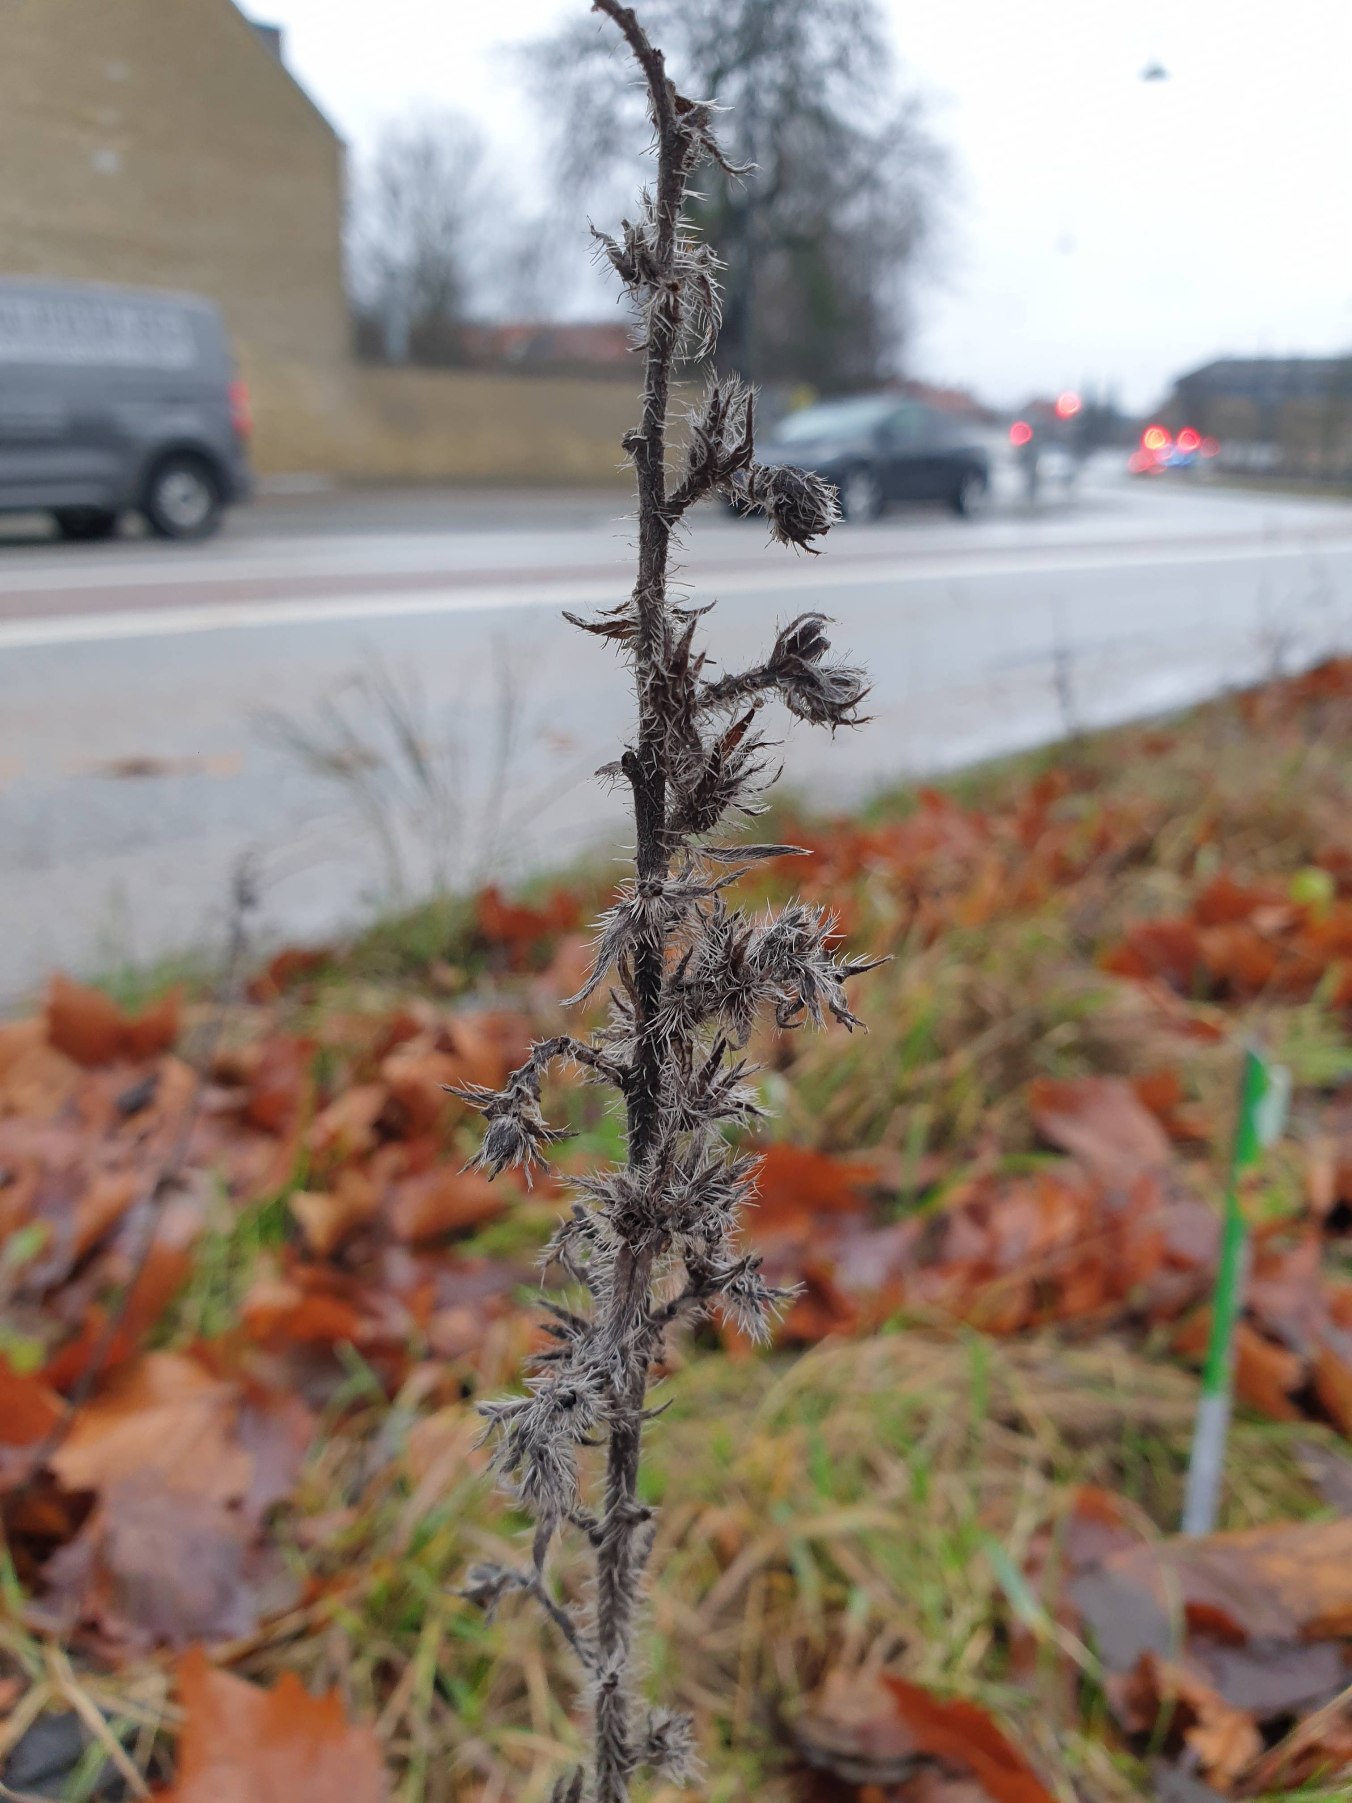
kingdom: Plantae
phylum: Tracheophyta
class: Magnoliopsida
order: Boraginales
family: Boraginaceae
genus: Echium
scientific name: Echium vulgare
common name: Slangehoved
